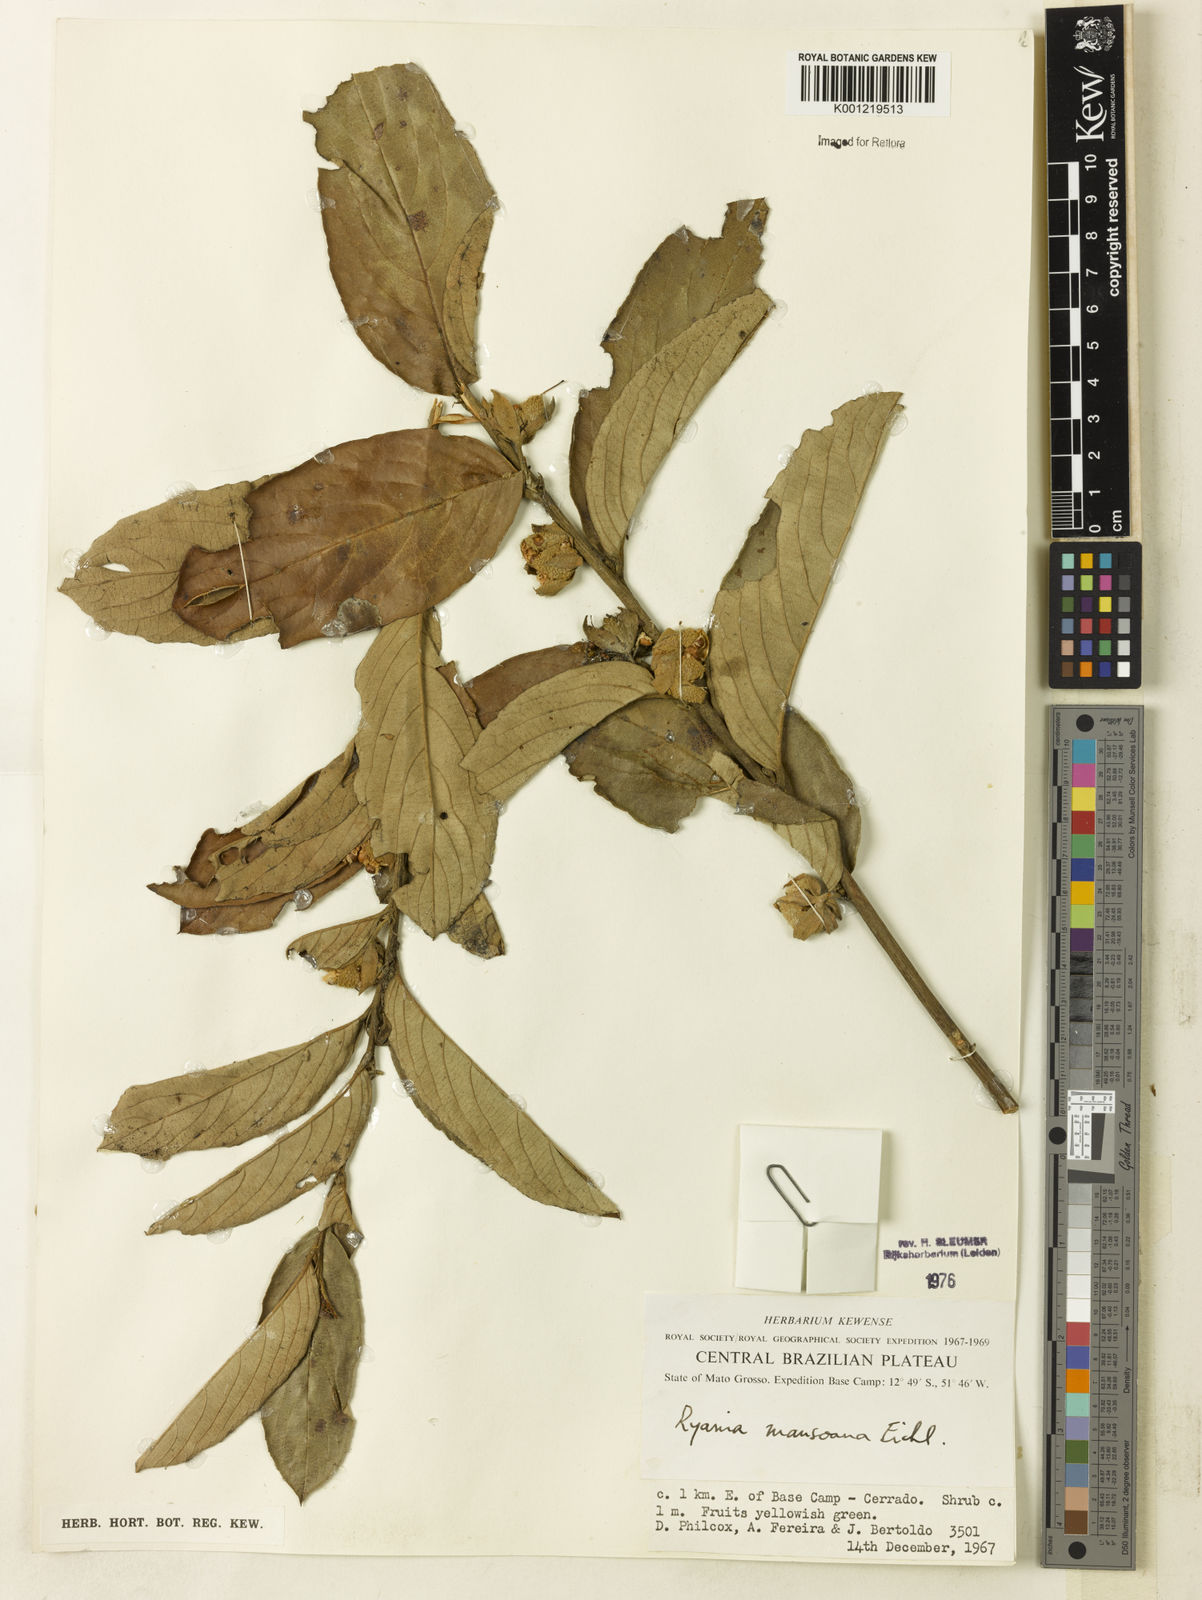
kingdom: Plantae
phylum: Tracheophyta
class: Magnoliopsida
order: Malpighiales
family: Salicaceae
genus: Ryania
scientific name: Ryania mansoana
